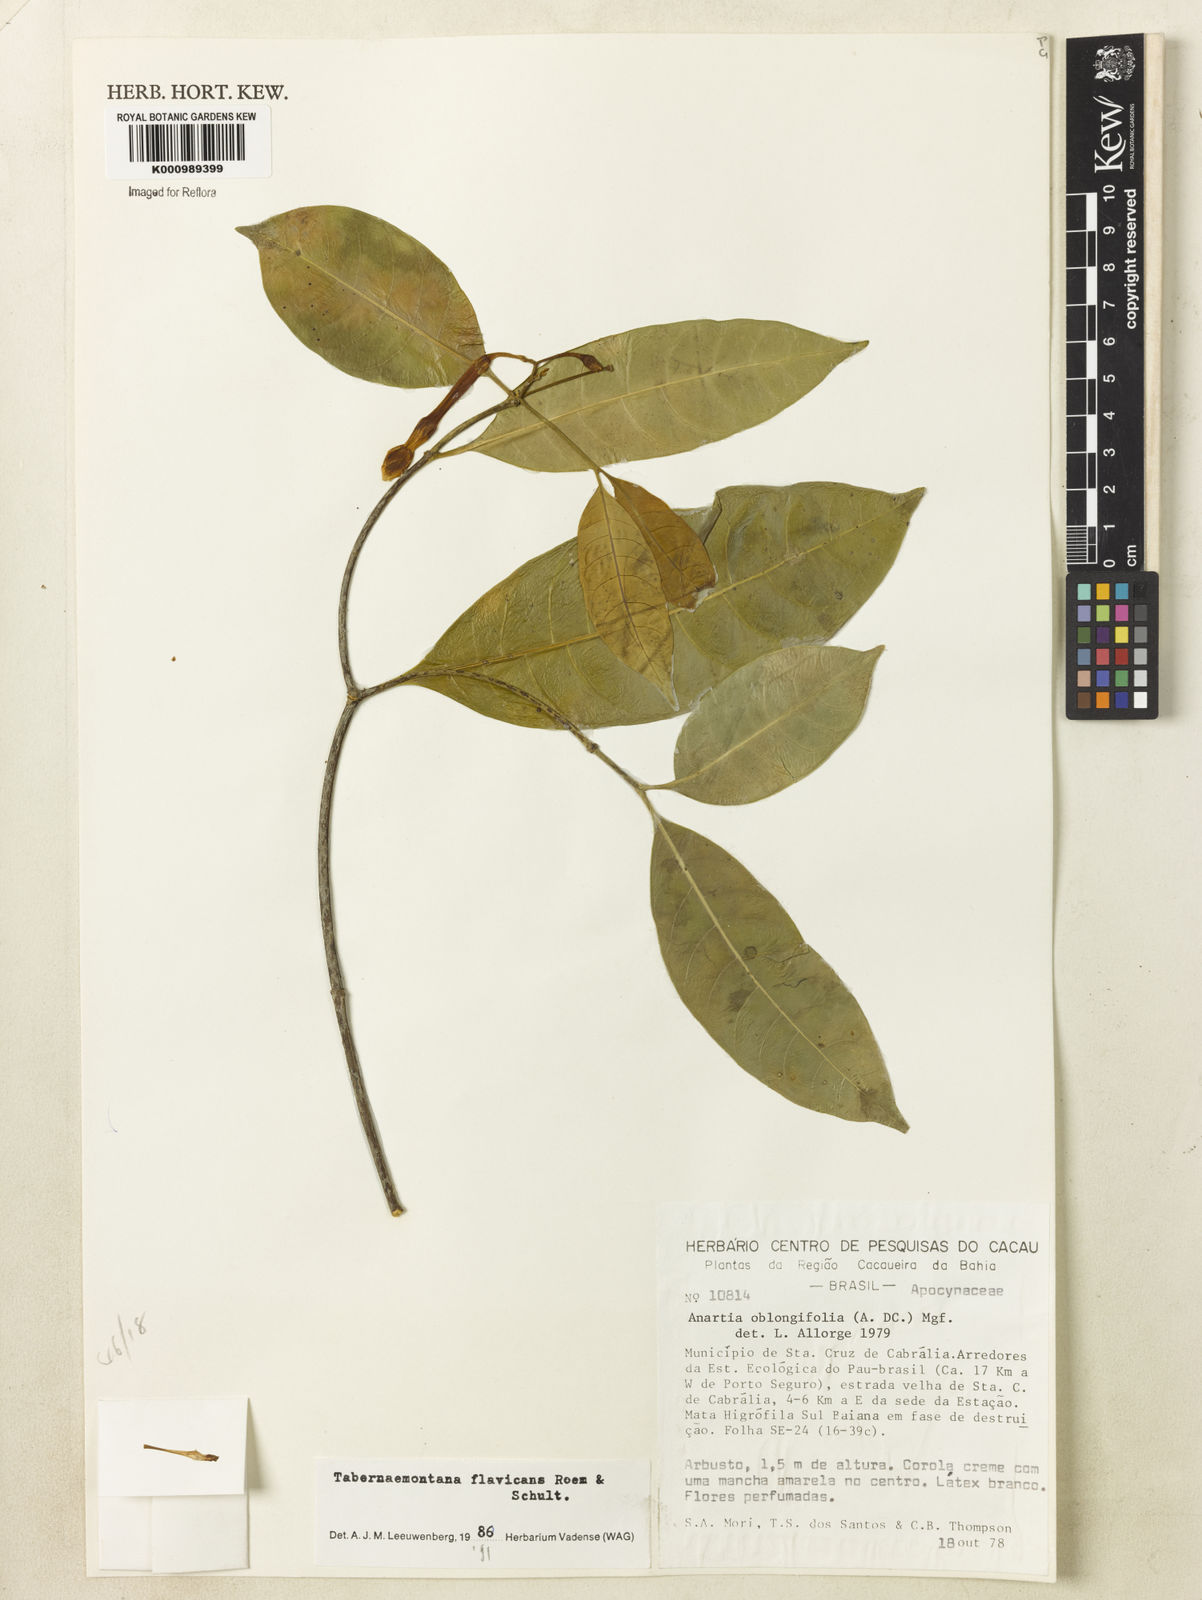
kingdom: Plantae
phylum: Tracheophyta
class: Magnoliopsida
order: Gentianales
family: Apocynaceae
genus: Tabernaemontana
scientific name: Tabernaemontana flavicans
